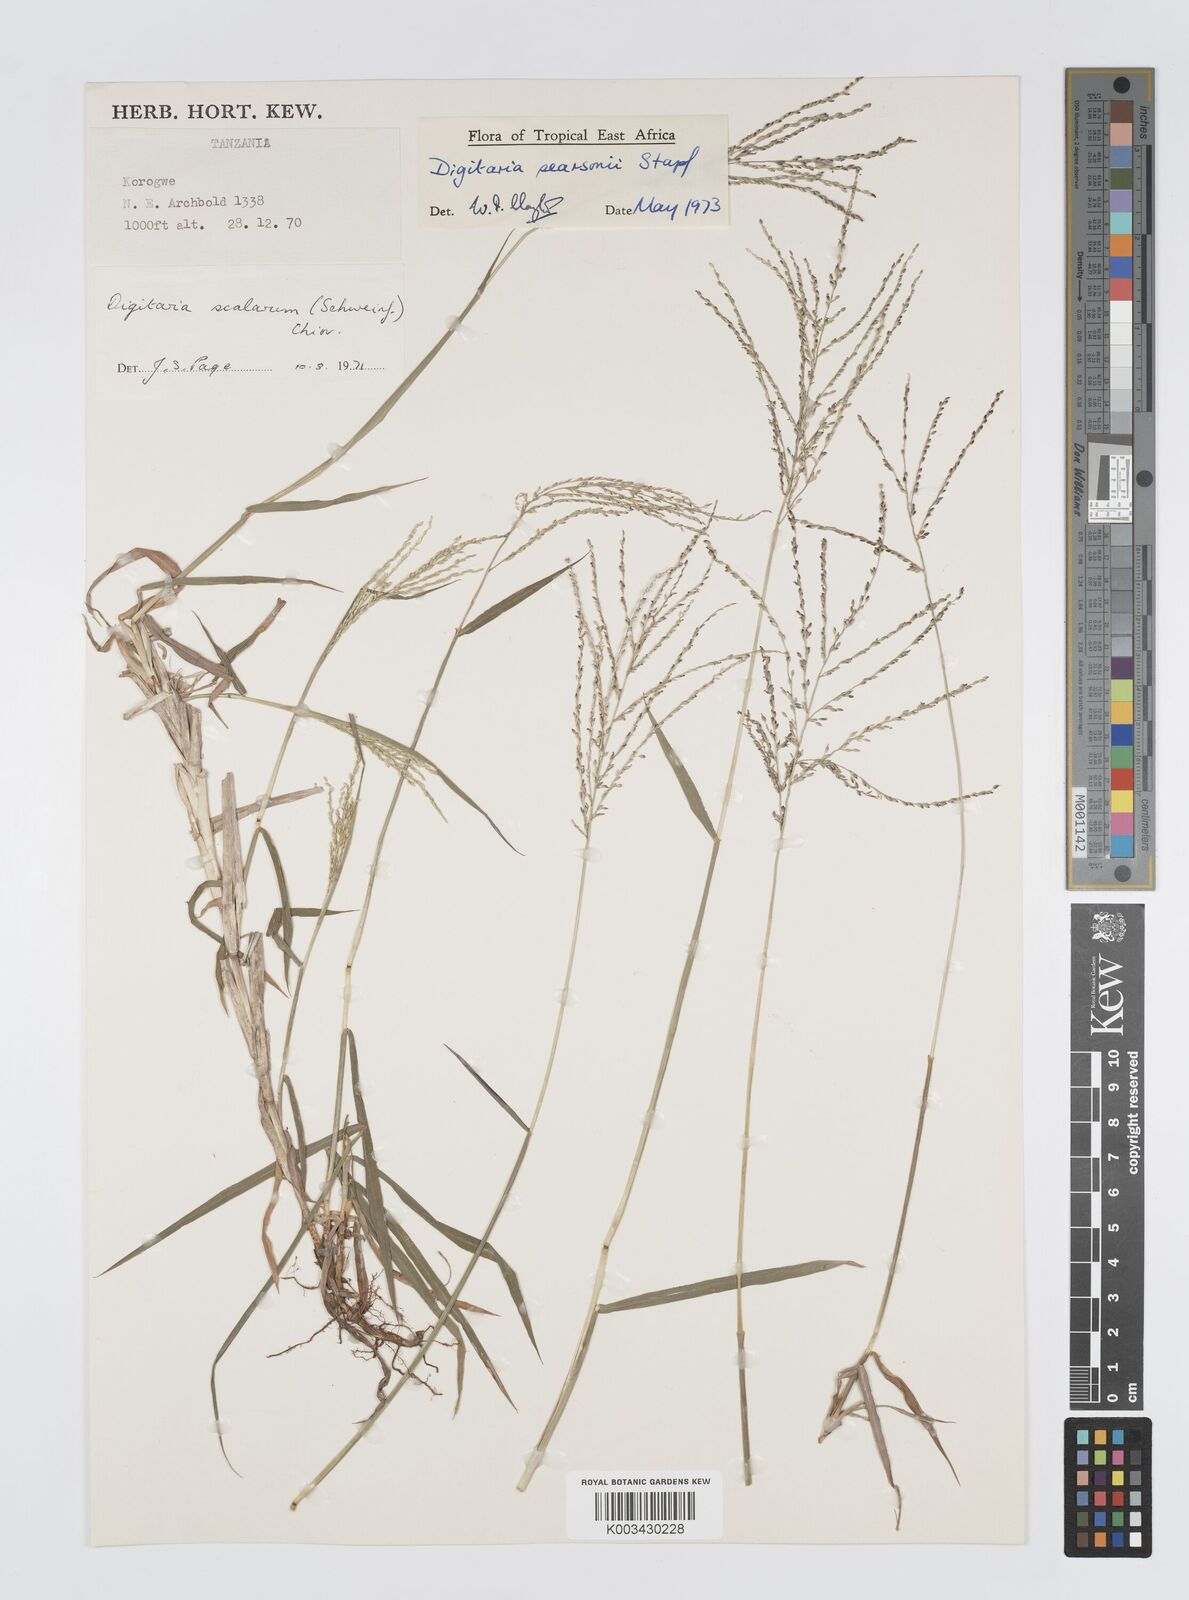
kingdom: Plantae
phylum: Tracheophyta
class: Liliopsida
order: Poales
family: Poaceae
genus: Digitaria
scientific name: Digitaria pearsonii
